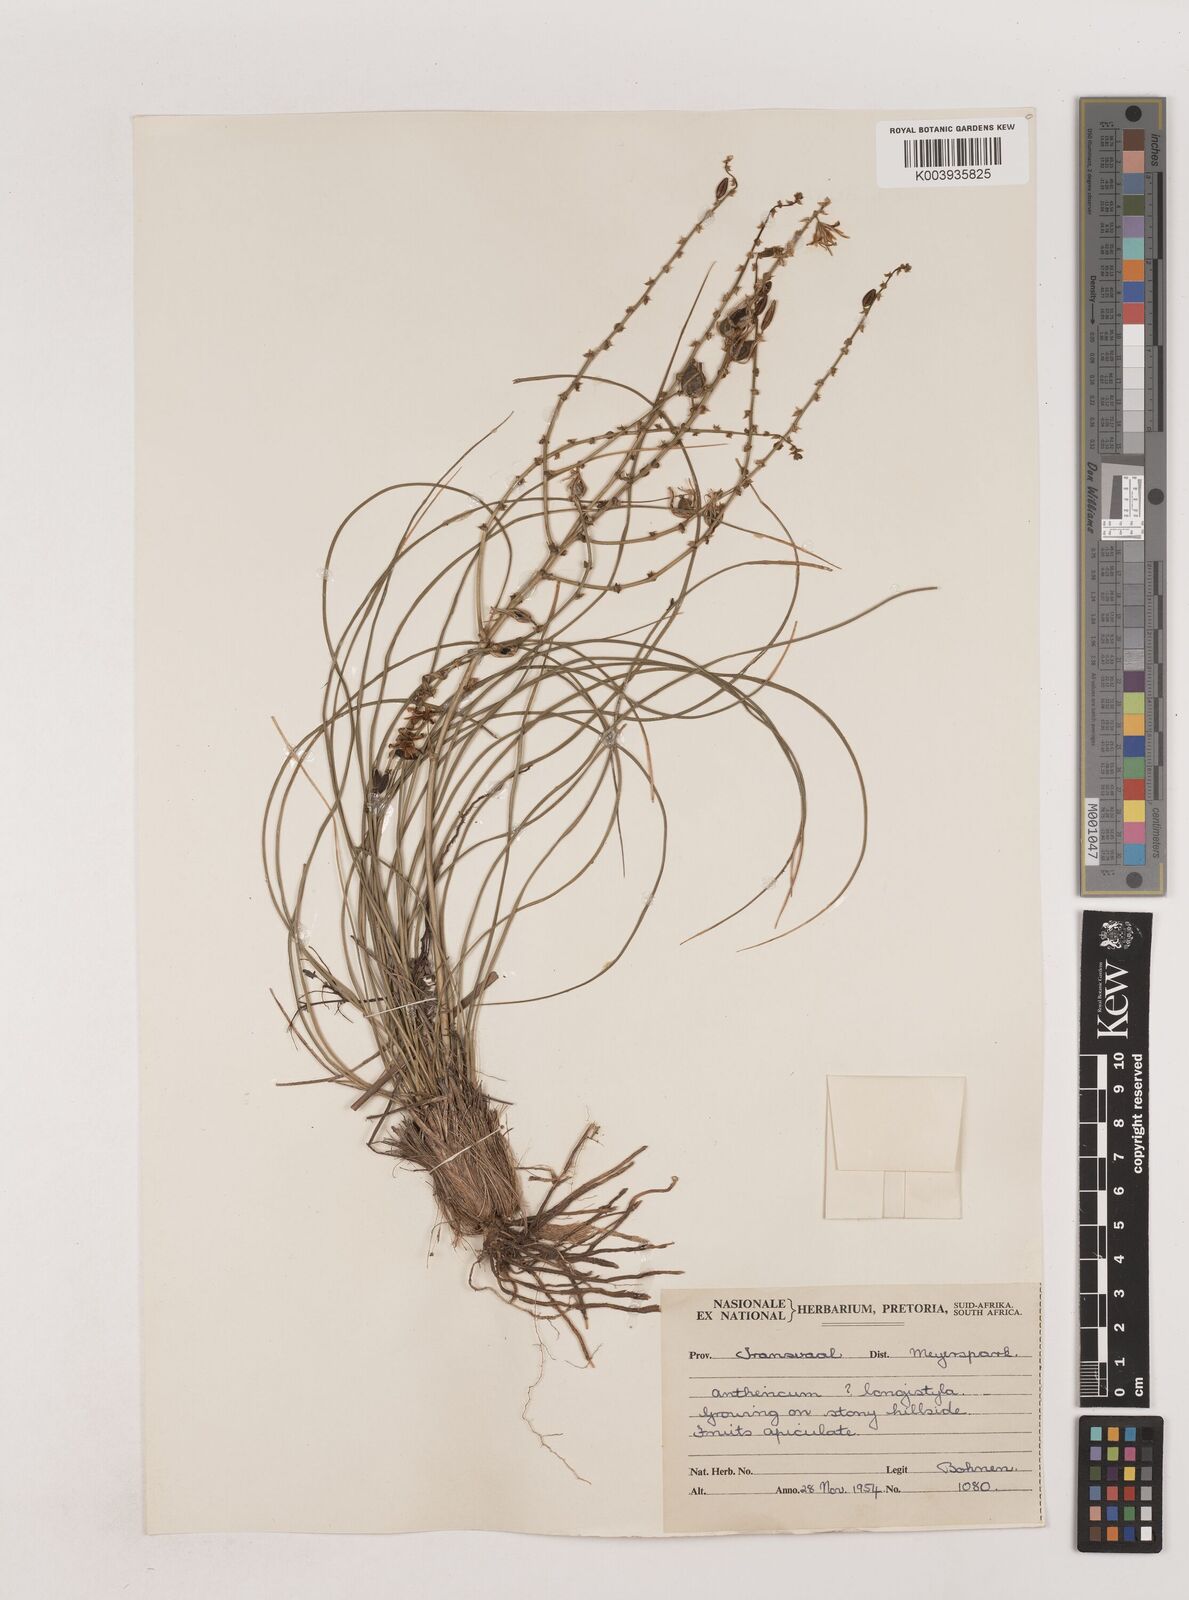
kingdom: Plantae
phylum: Tracheophyta
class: Liliopsida
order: Asparagales
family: Asparagaceae
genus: Chlorophytum
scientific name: Chlorophytum recurvifolium
